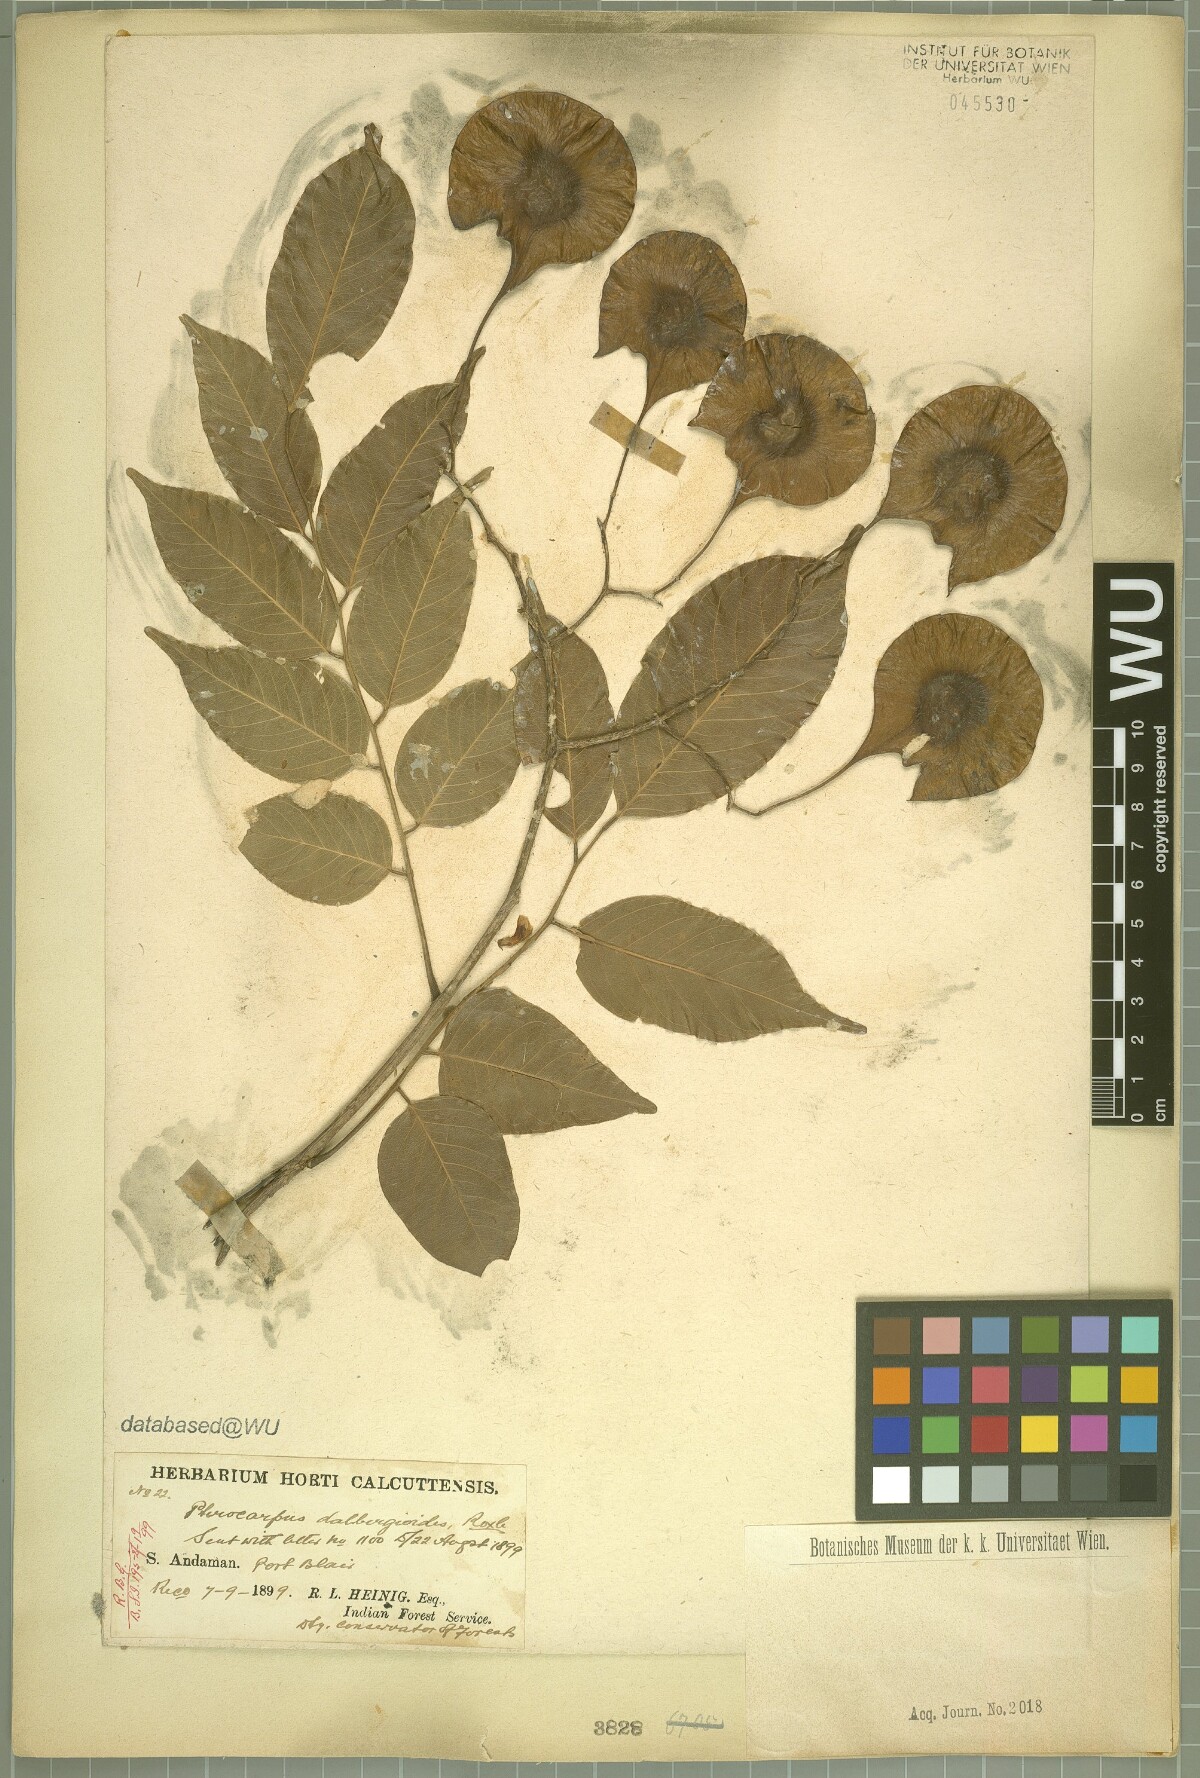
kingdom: Plantae
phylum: Tracheophyta
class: Magnoliopsida
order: Fabales
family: Fabaceae
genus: Pterocarpus
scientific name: Pterocarpus dalbergioides
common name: Andaman redwood
